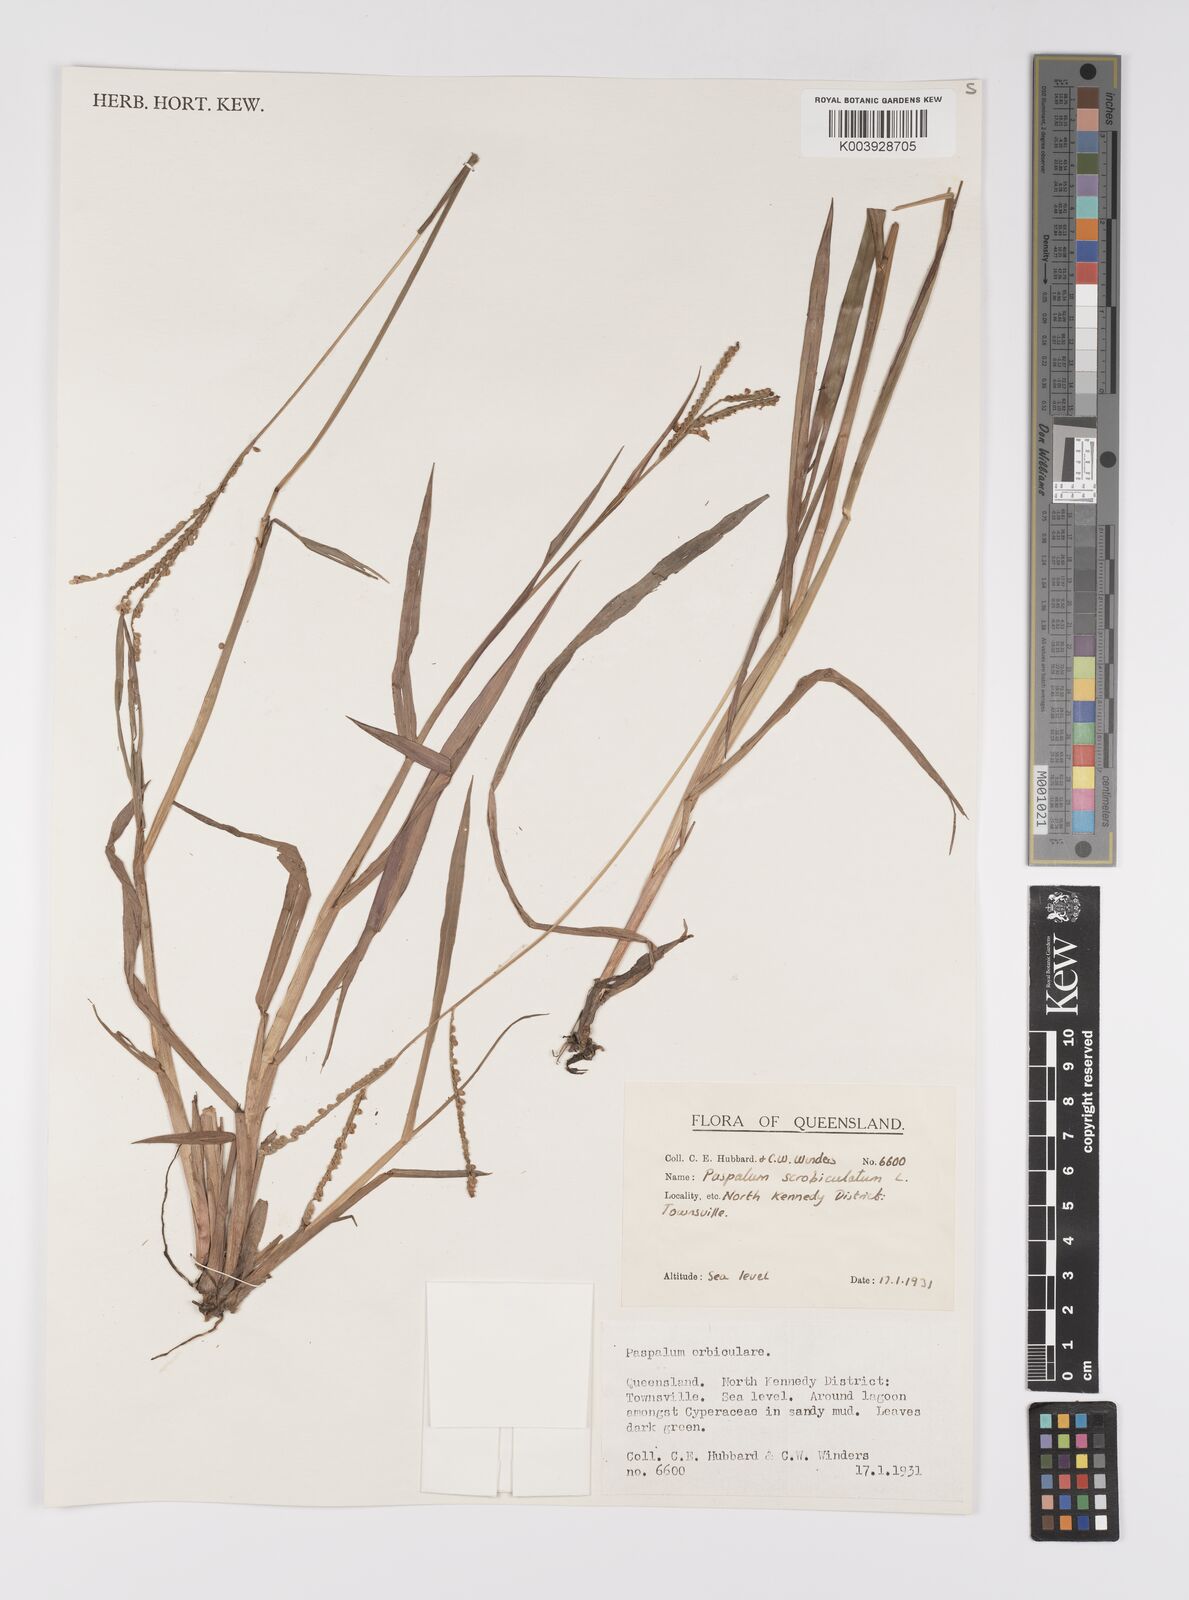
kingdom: Plantae
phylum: Tracheophyta
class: Liliopsida
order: Poales
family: Poaceae
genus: Paspalum
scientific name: Paspalum scrobiculatum
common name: Kodo millet
